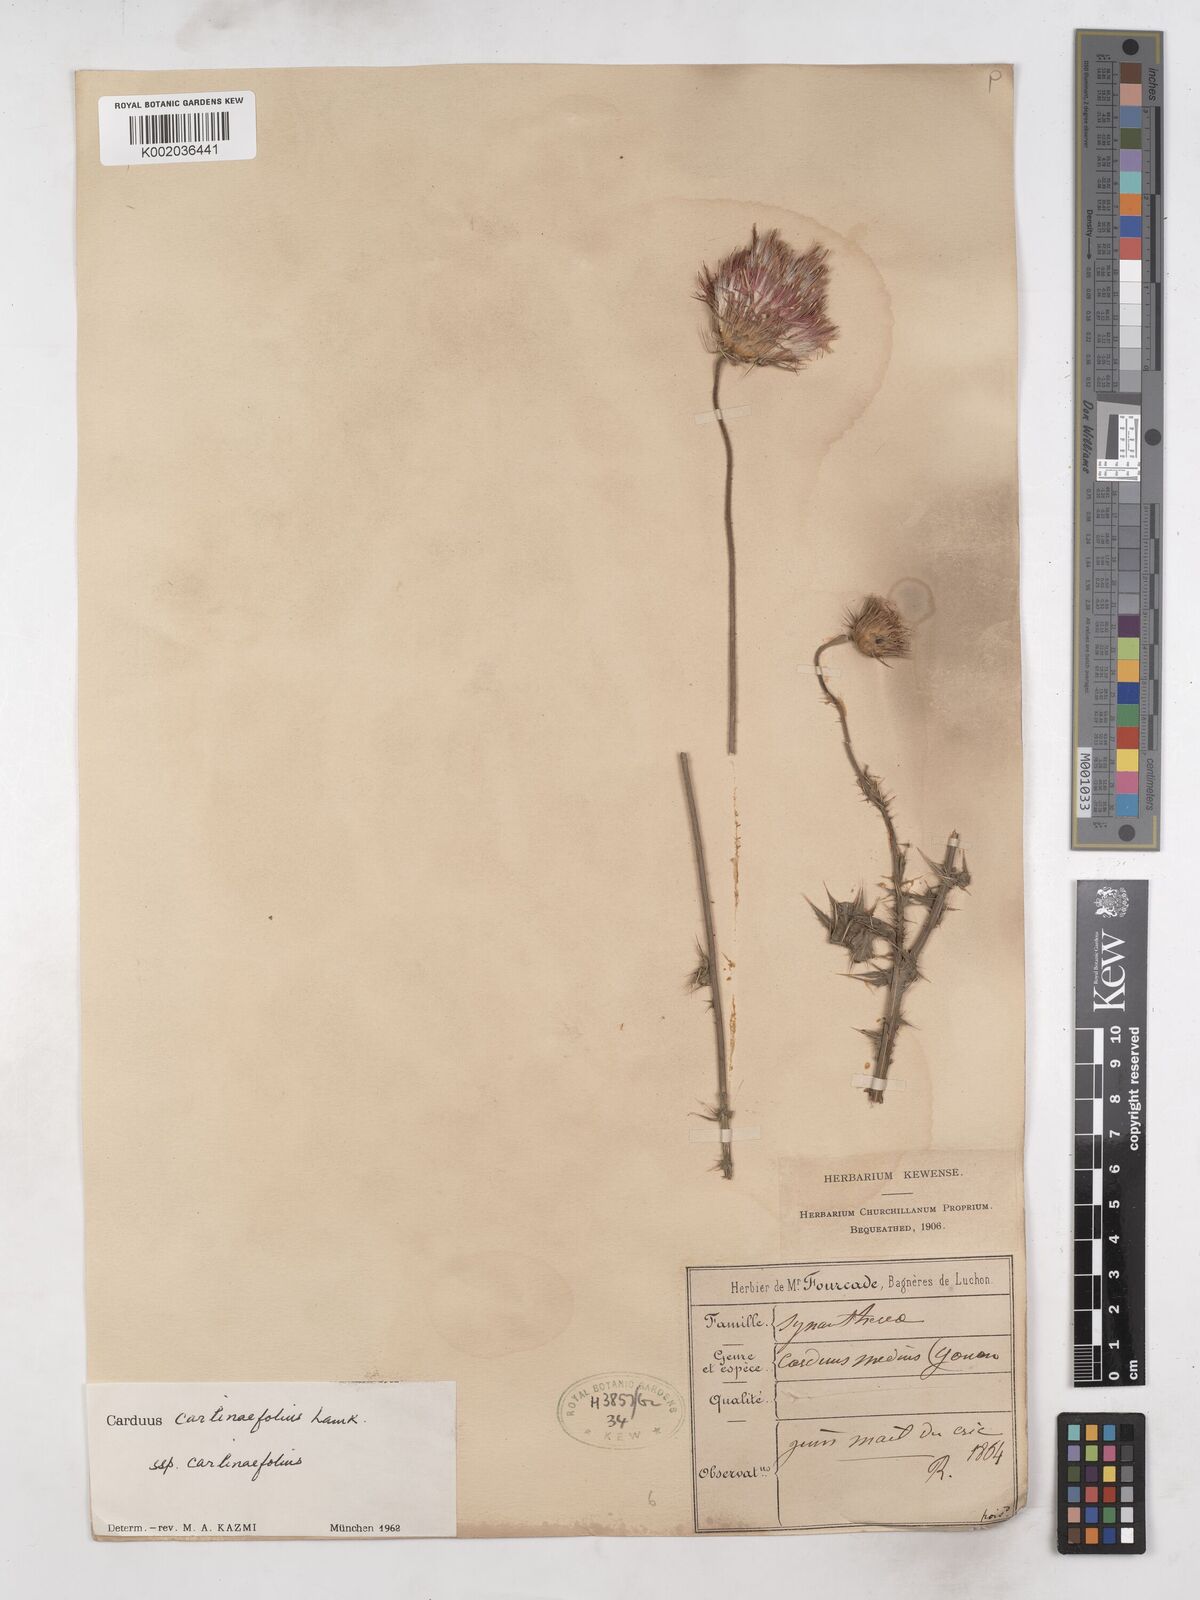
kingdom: Plantae
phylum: Tracheophyta
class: Magnoliopsida
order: Asterales
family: Asteraceae
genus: Carduus
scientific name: Carduus carlinifolius
